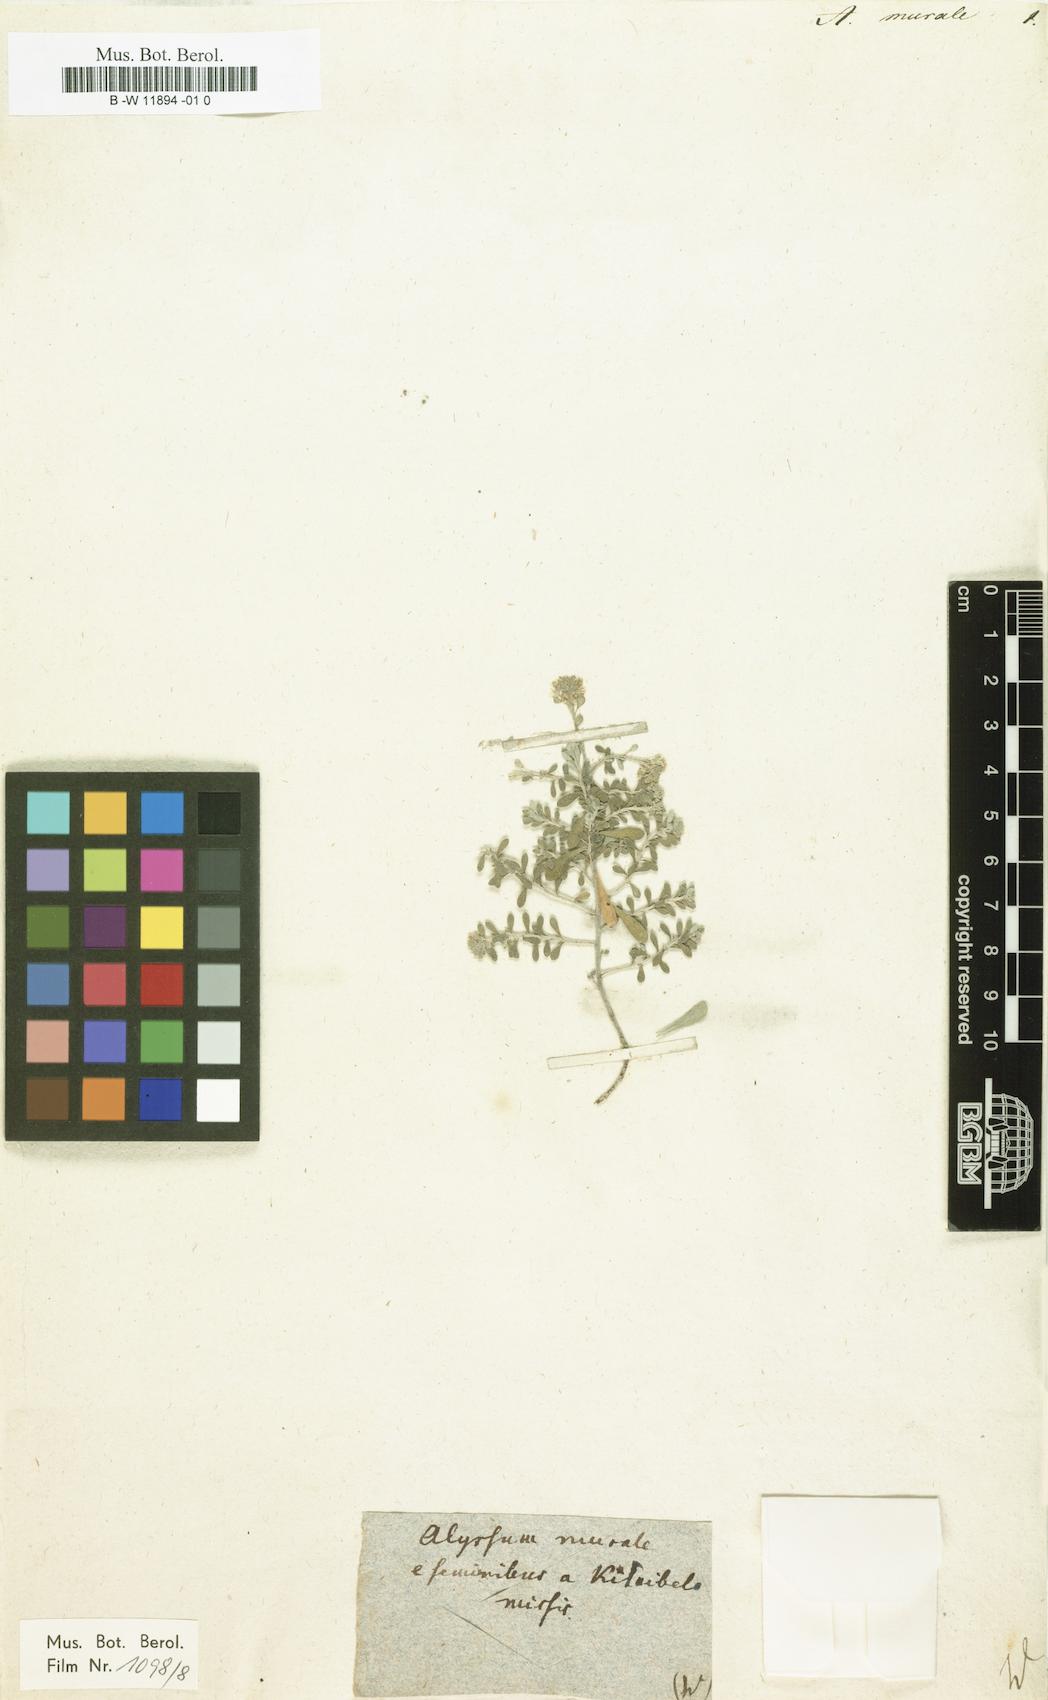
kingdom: Plantae
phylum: Tracheophyta
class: Magnoliopsida
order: Brassicales
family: Brassicaceae
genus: Odontarrhena
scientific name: Odontarrhena muralis
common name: Rock alyssum
